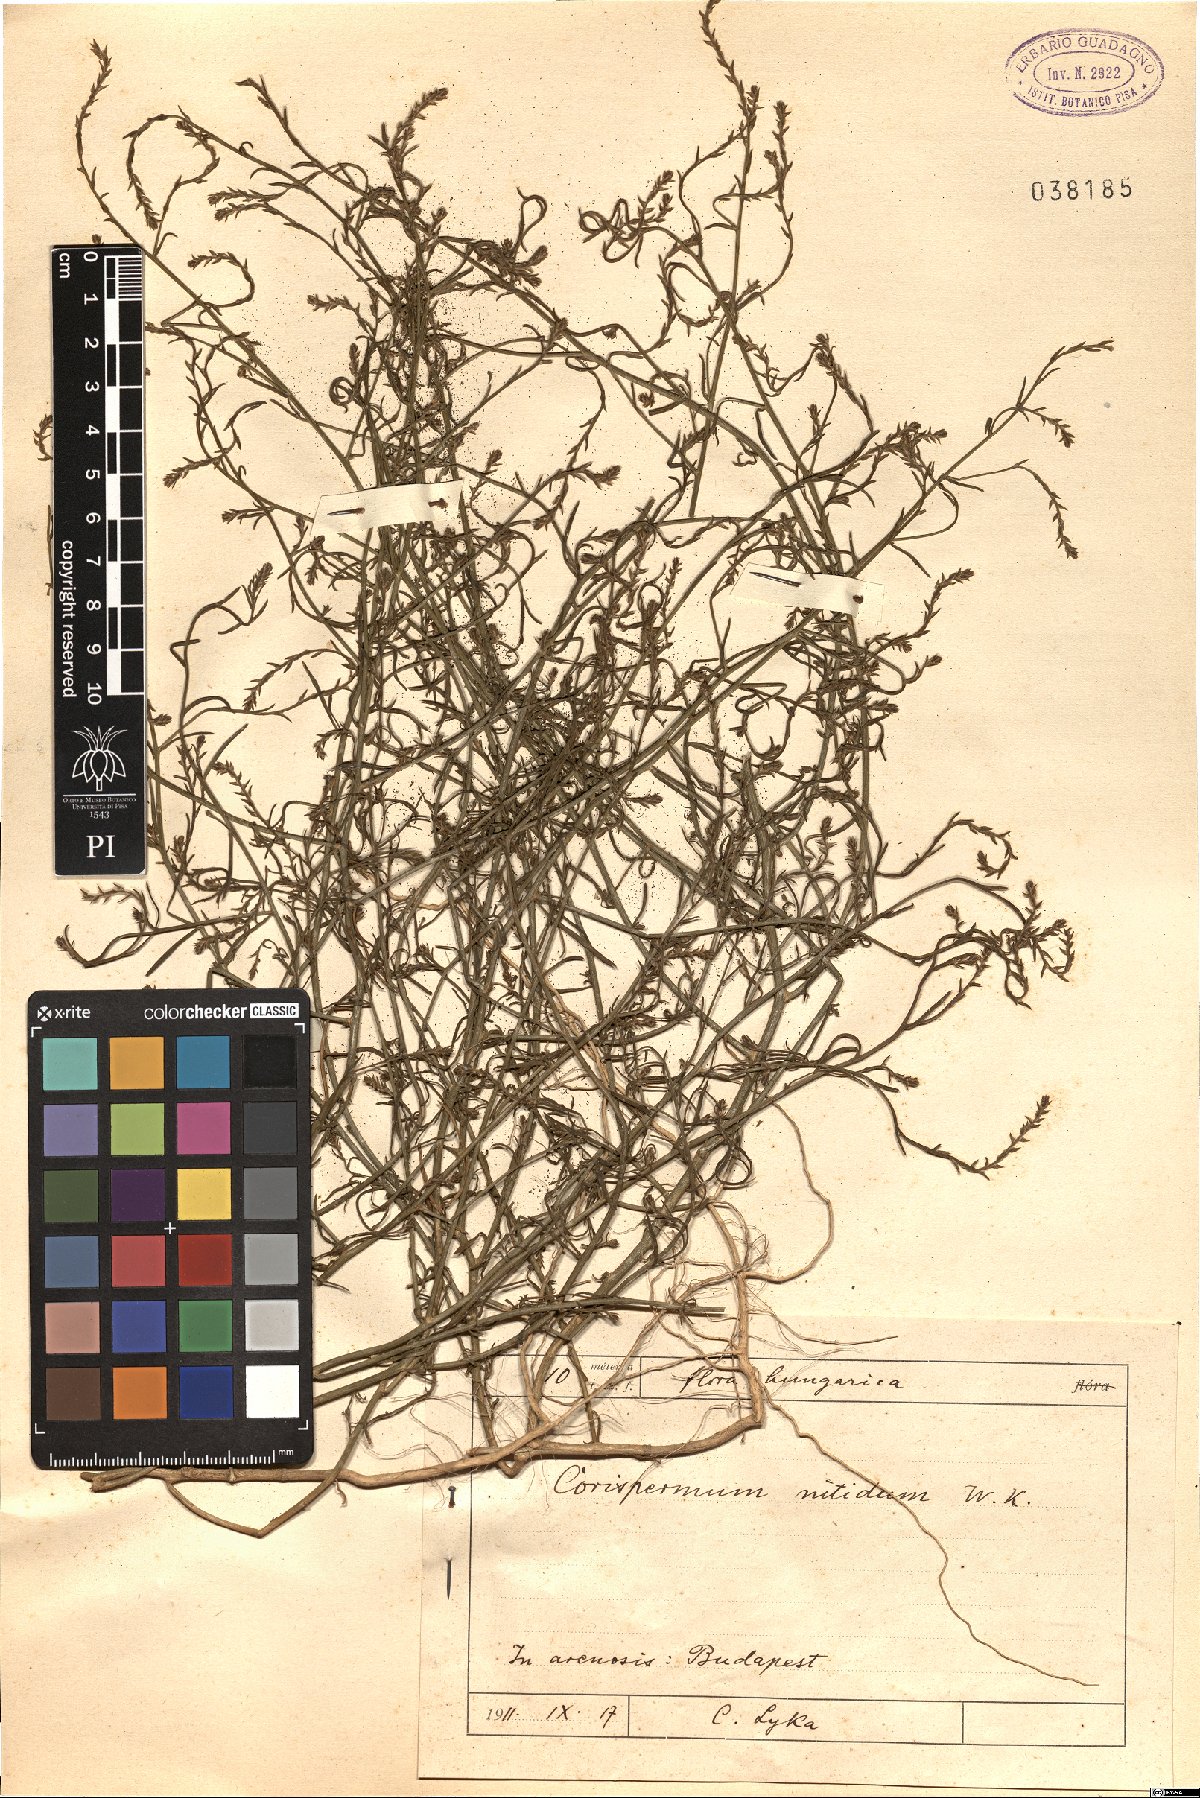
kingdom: Plantae
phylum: Tracheophyta
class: Magnoliopsida
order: Caryophyllales
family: Amaranthaceae
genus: Corispermum
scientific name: Corispermum nitidum
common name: Bugseed
